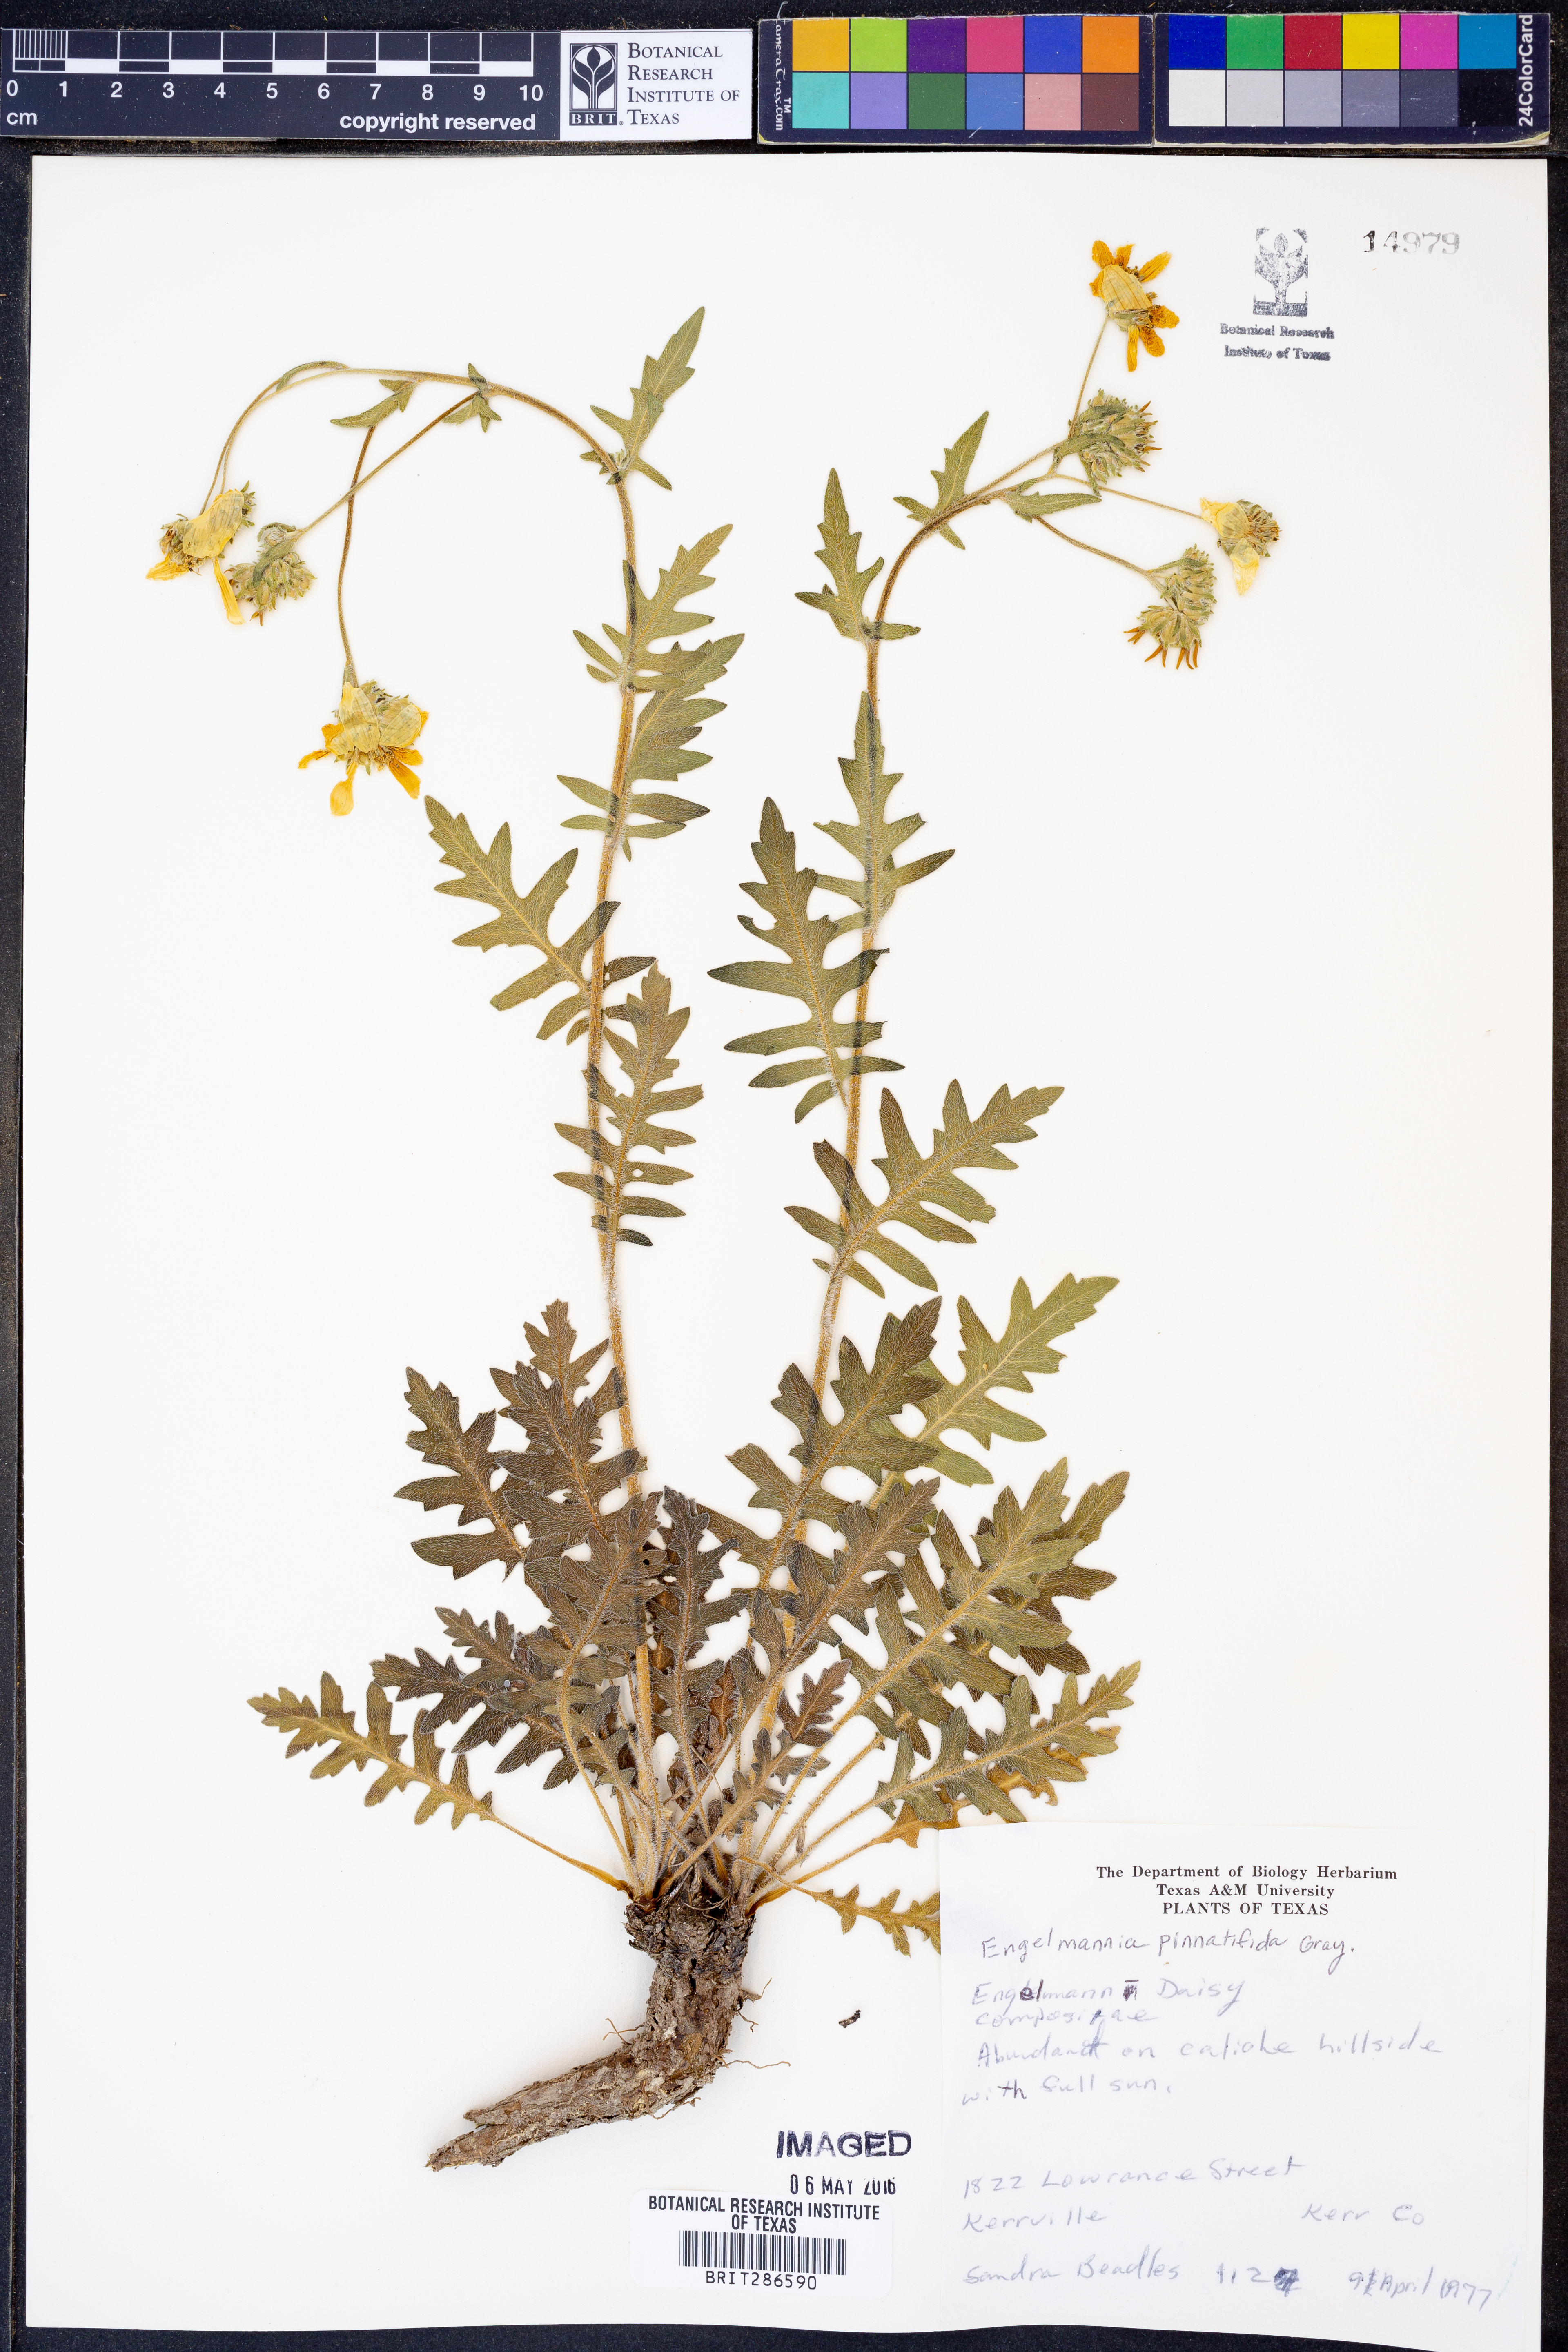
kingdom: Plantae
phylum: Tracheophyta
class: Magnoliopsida
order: Asterales
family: Asteraceae
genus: Engelmannia
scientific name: Engelmannia peristenia
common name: Engelmann's daisy
